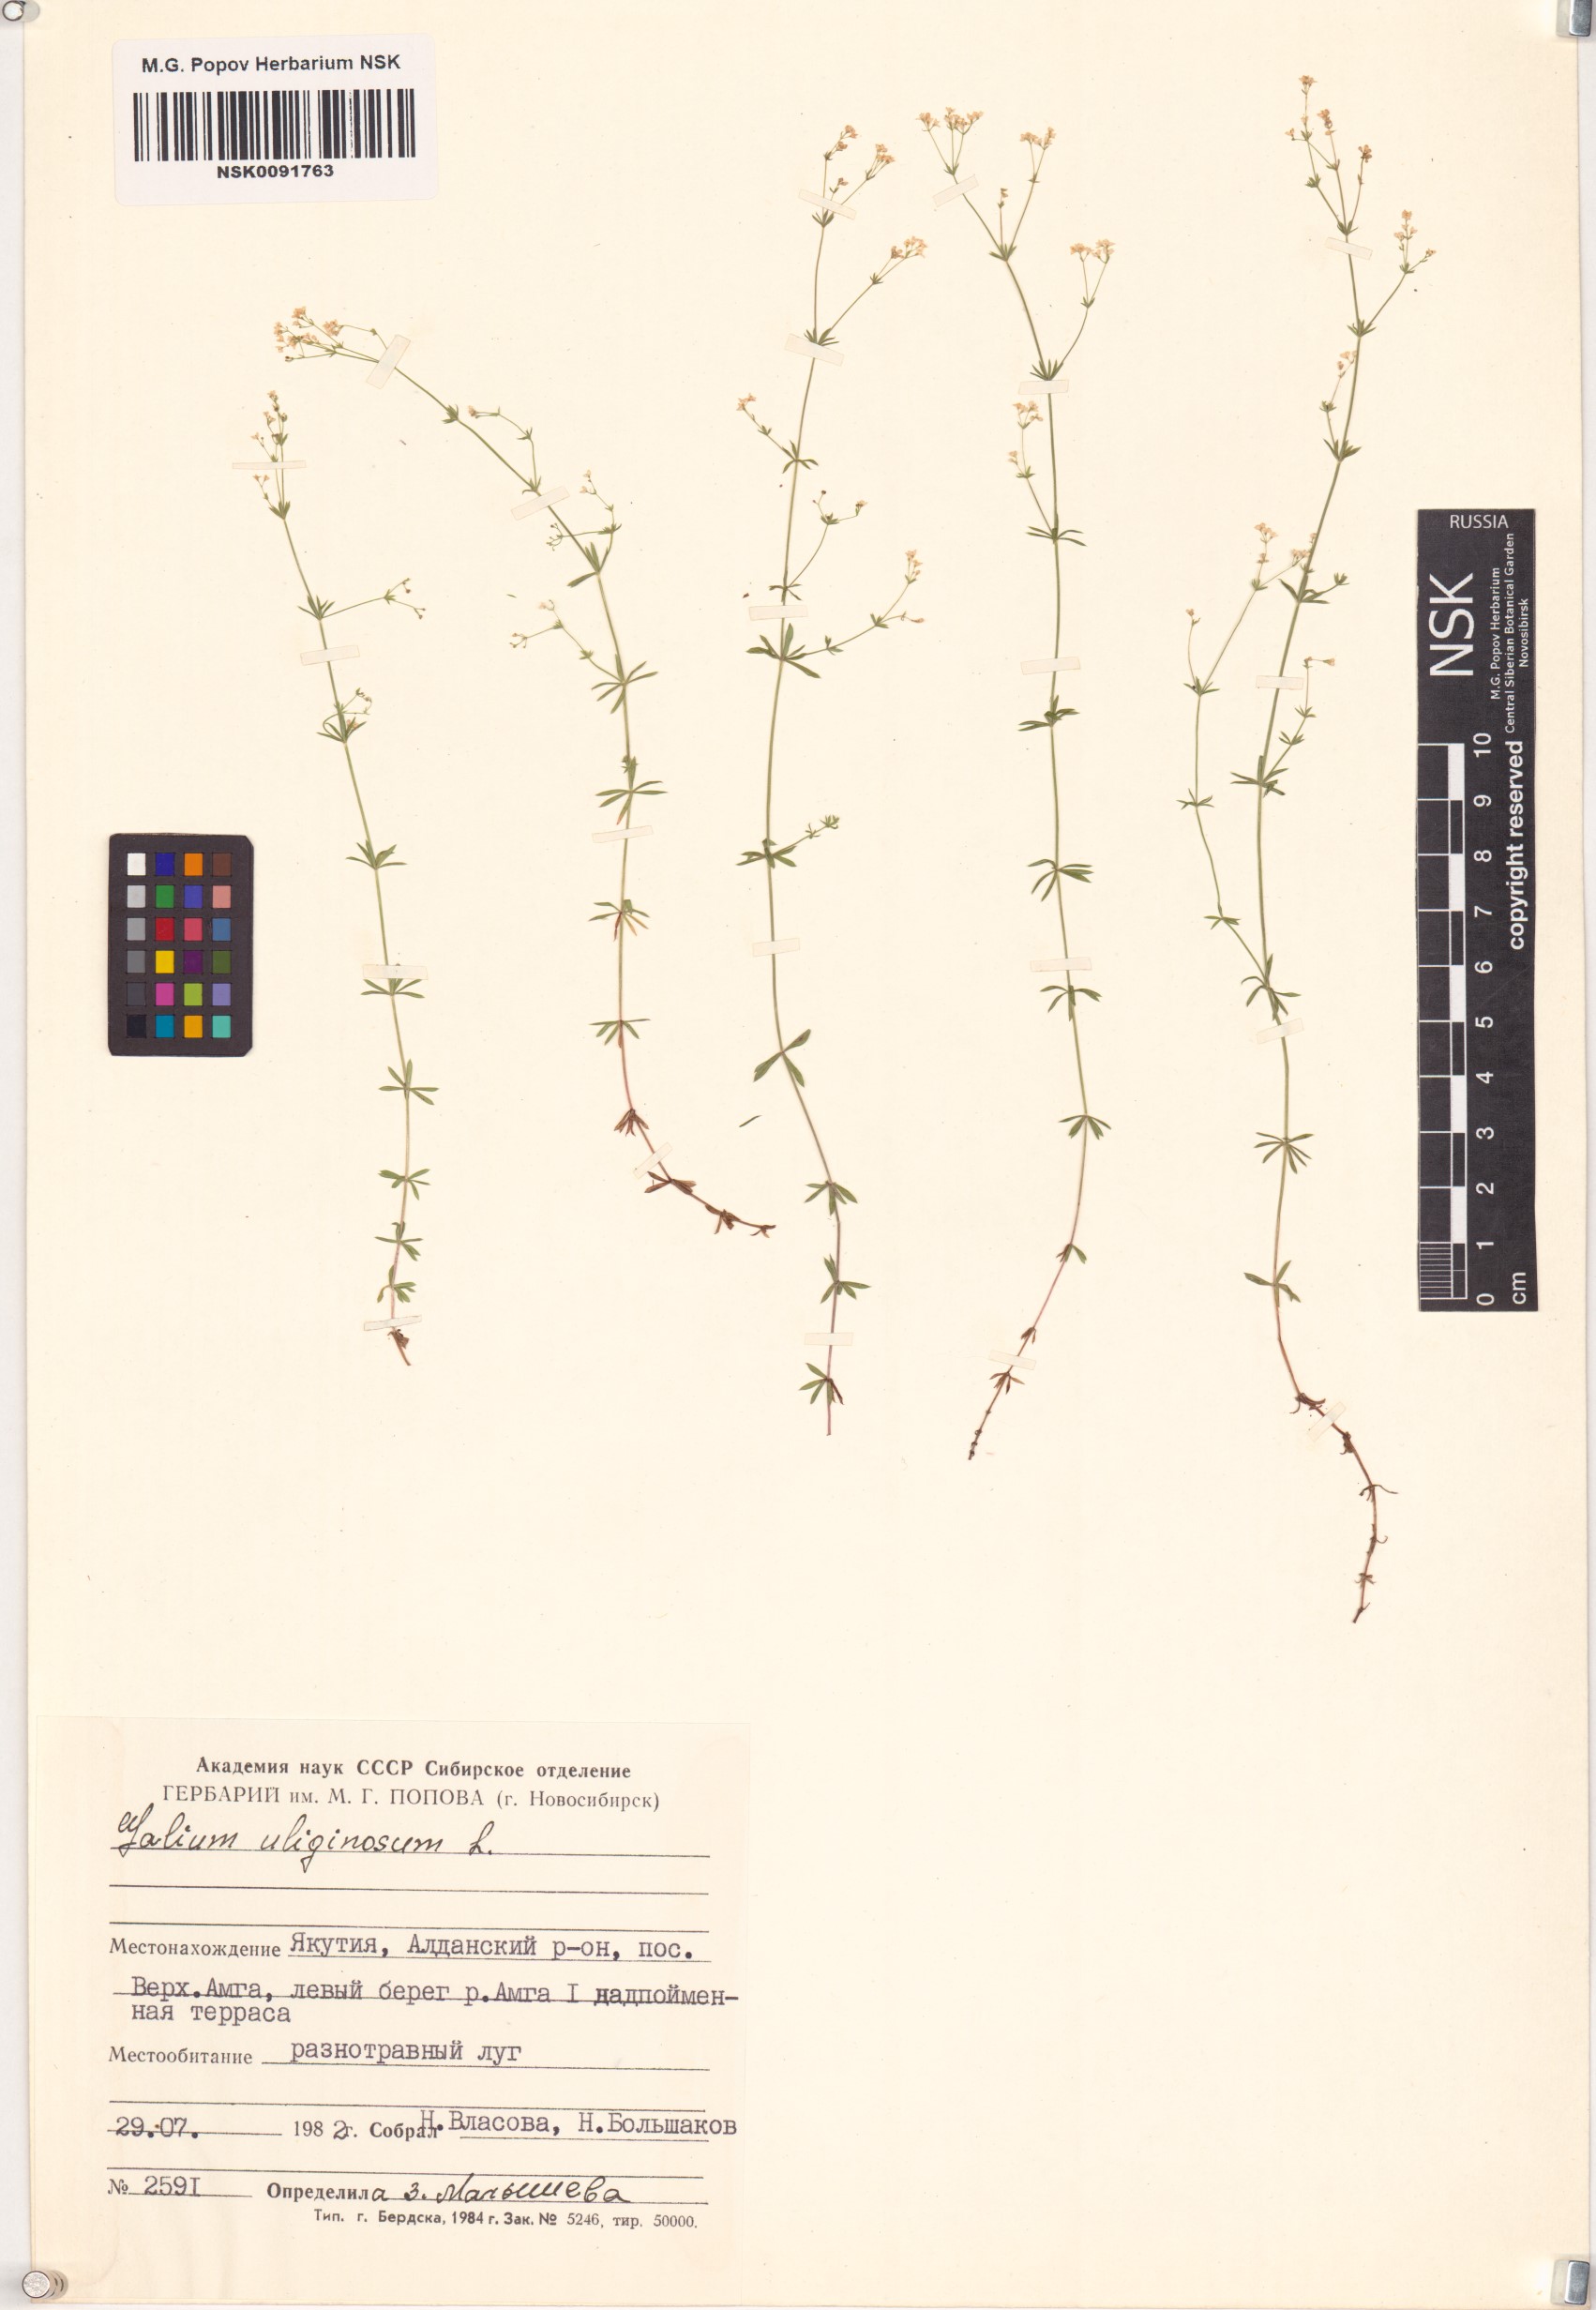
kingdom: Plantae
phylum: Tracheophyta
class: Magnoliopsida
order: Gentianales
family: Rubiaceae
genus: Galium
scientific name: Galium uliginosum
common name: Fen bedstraw
